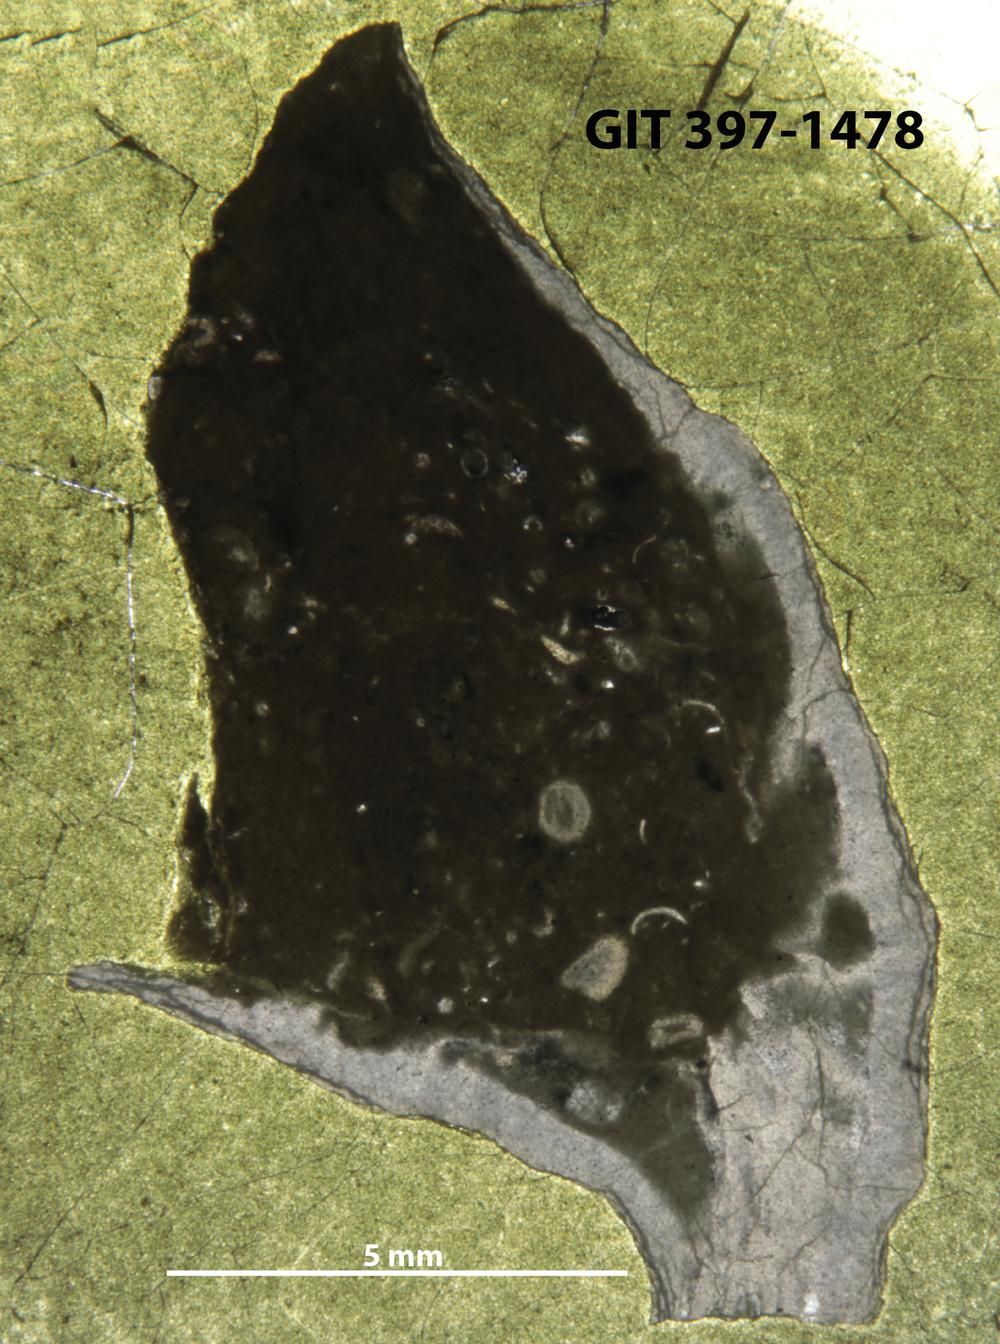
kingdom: Animalia
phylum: Cnidaria
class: Anthozoa
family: Streptelasmatidae
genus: Densiphyllum
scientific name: Densiphyllum
